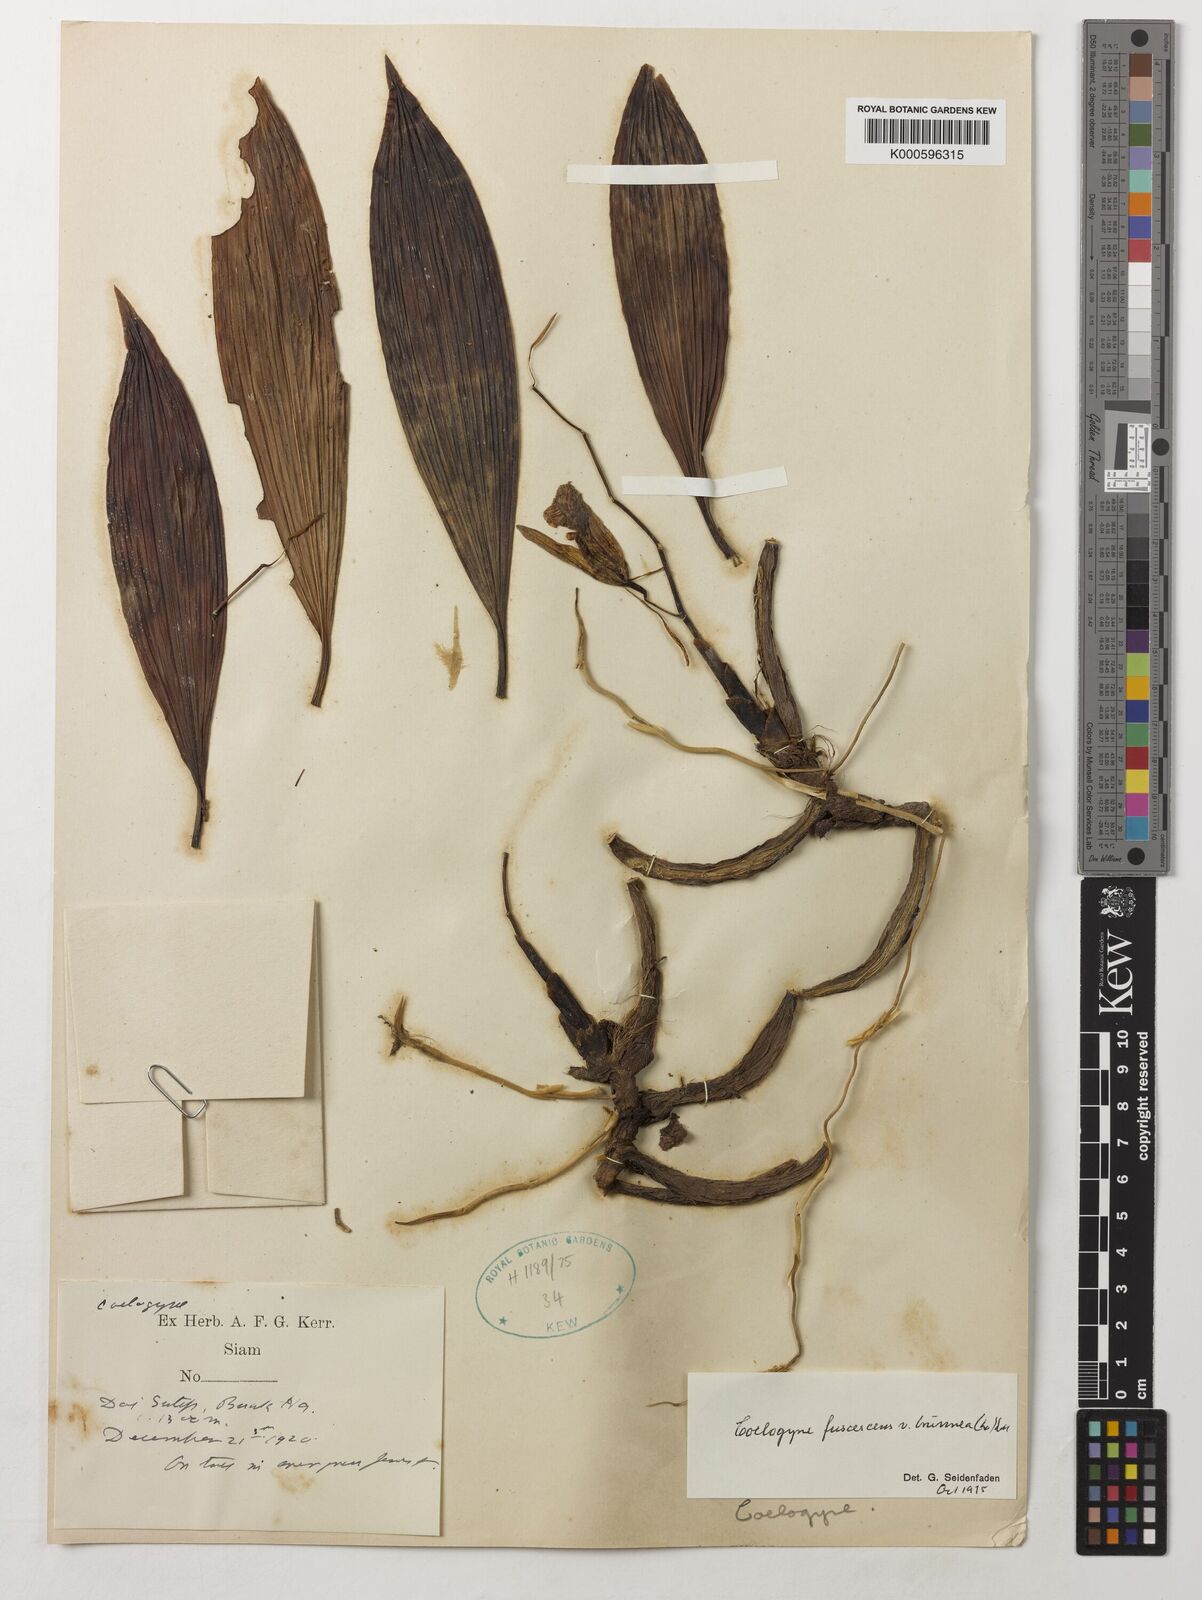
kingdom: Plantae
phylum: Tracheophyta
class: Liliopsida
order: Asparagales
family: Orchidaceae
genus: Coelogyne
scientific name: Coelogyne fuscescens
